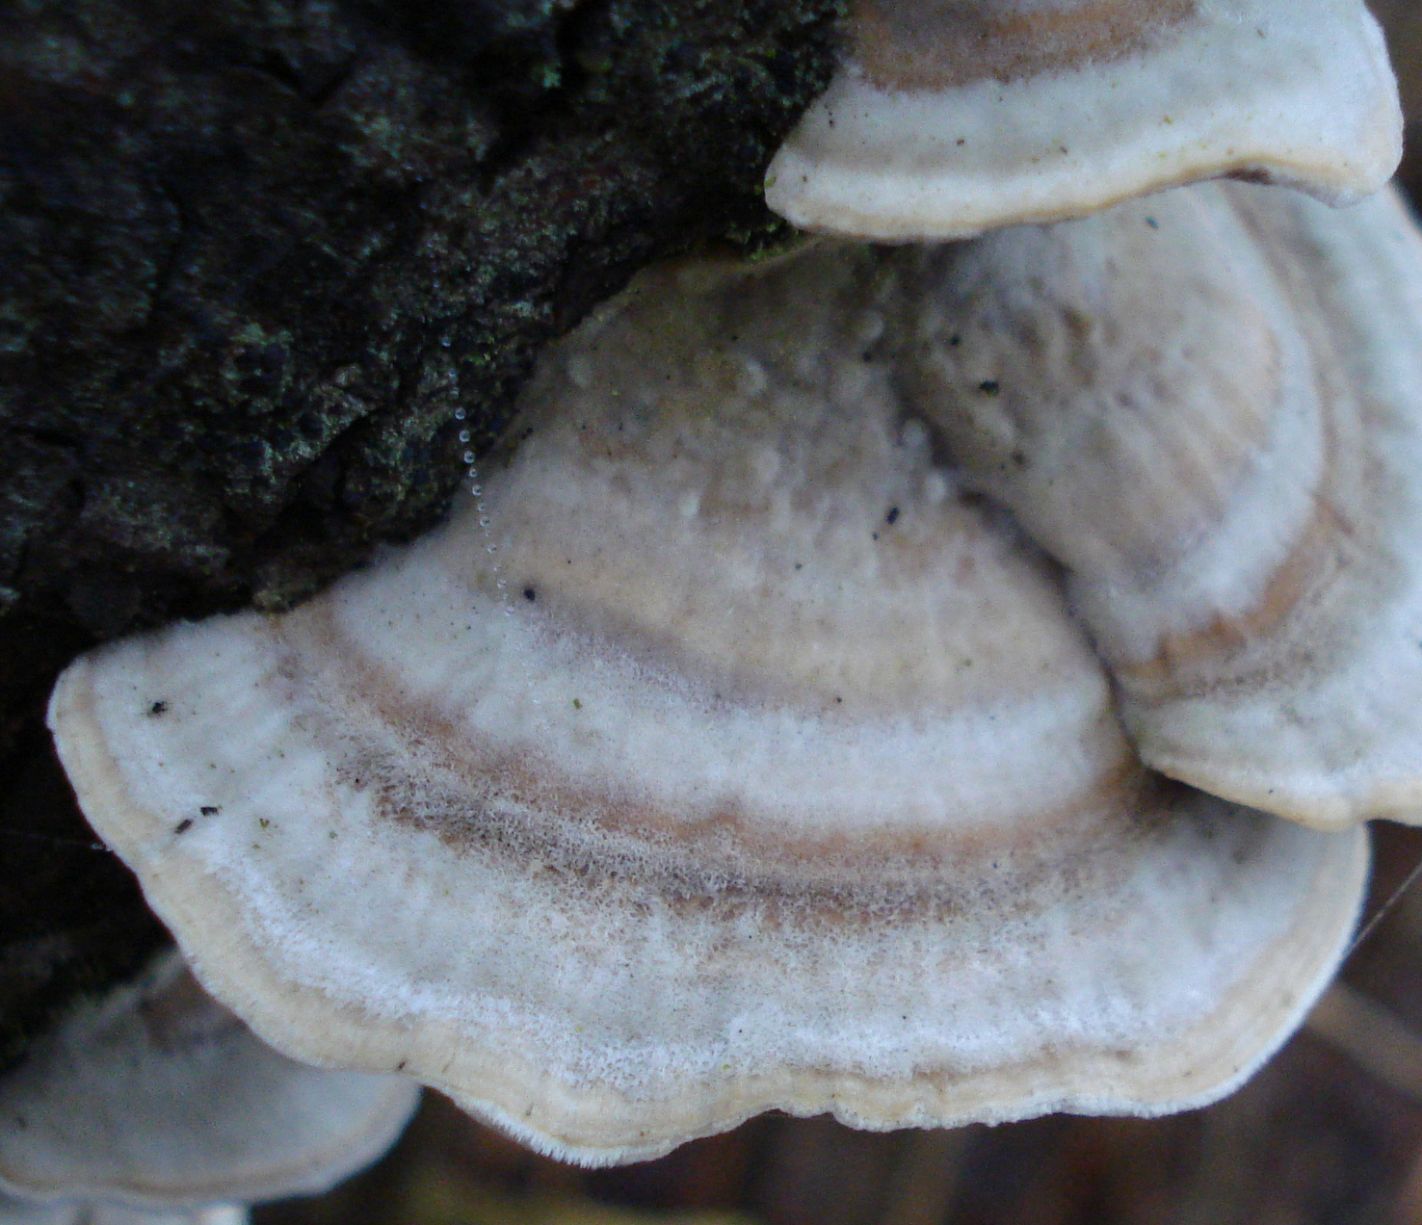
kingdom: Fungi
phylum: Basidiomycota
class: Agaricomycetes
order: Polyporales
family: Polyporaceae
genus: Trametes
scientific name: Trametes hirsuta
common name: håret læderporesvamp
